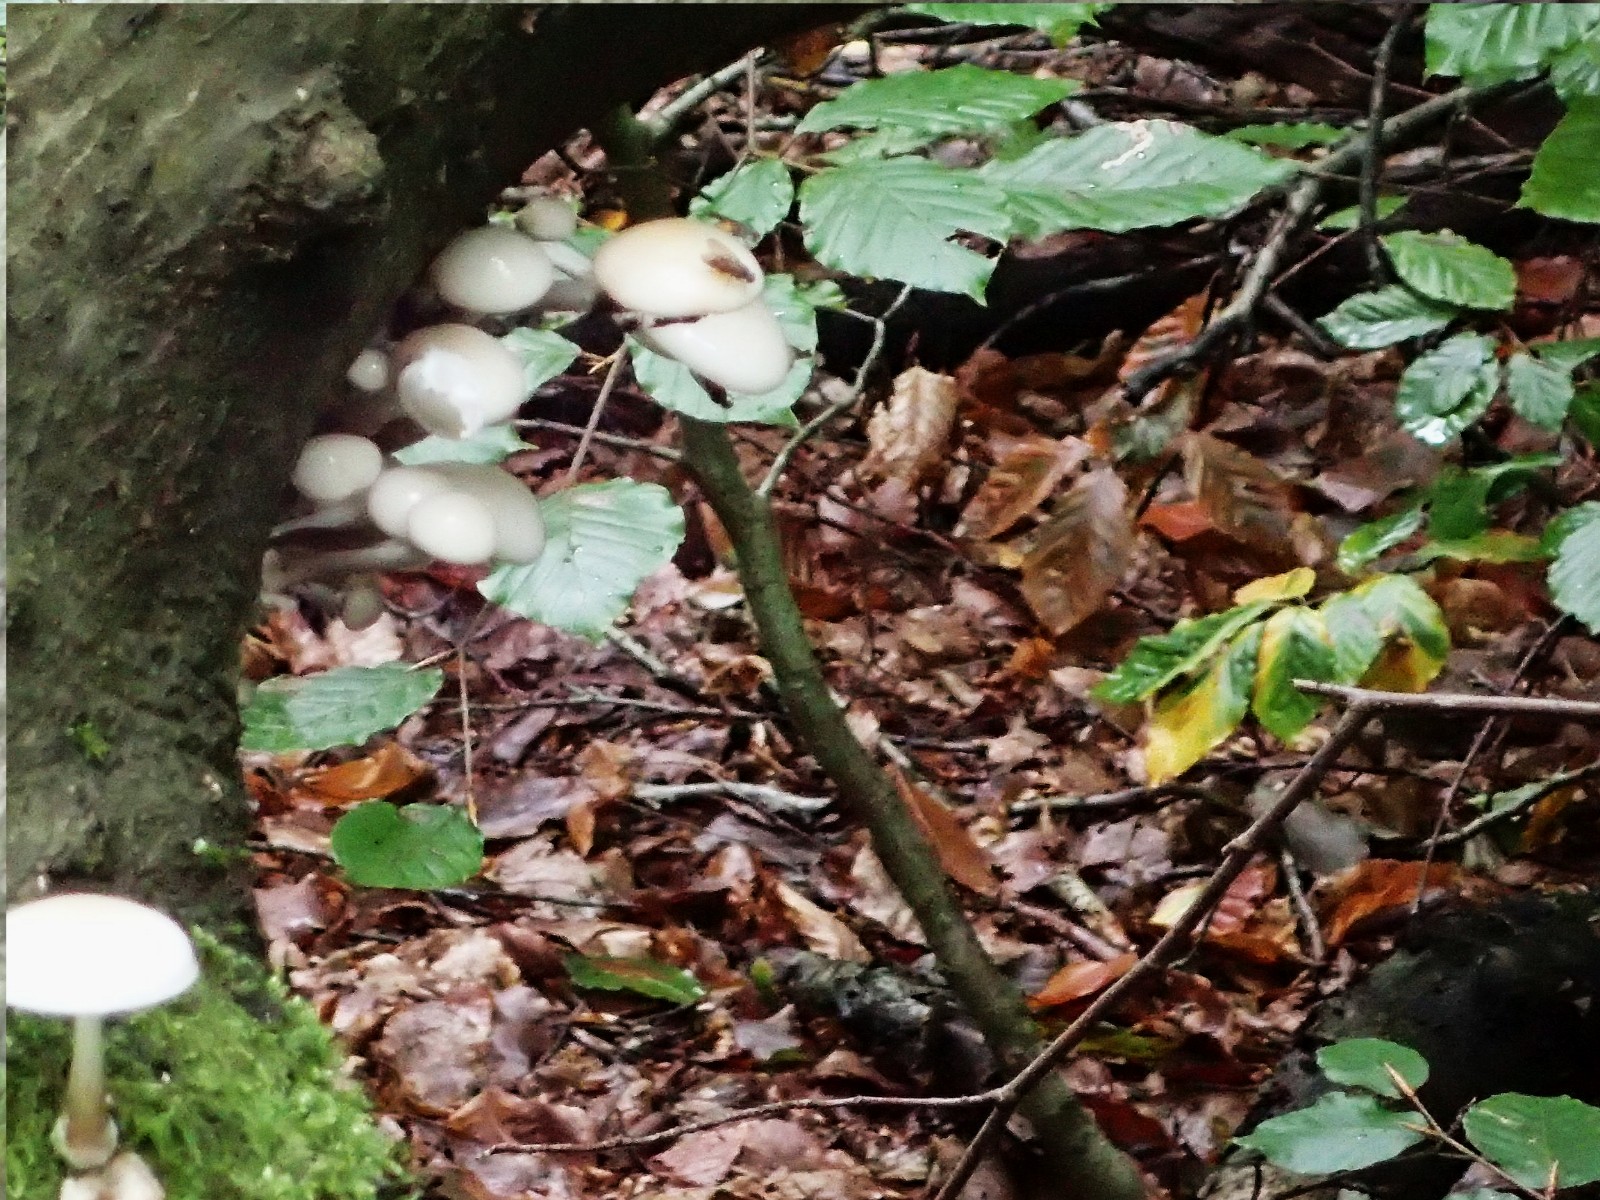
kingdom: Fungi
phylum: Basidiomycota
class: Agaricomycetes
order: Agaricales
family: Physalacriaceae
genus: Mucidula
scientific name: Mucidula mucida
